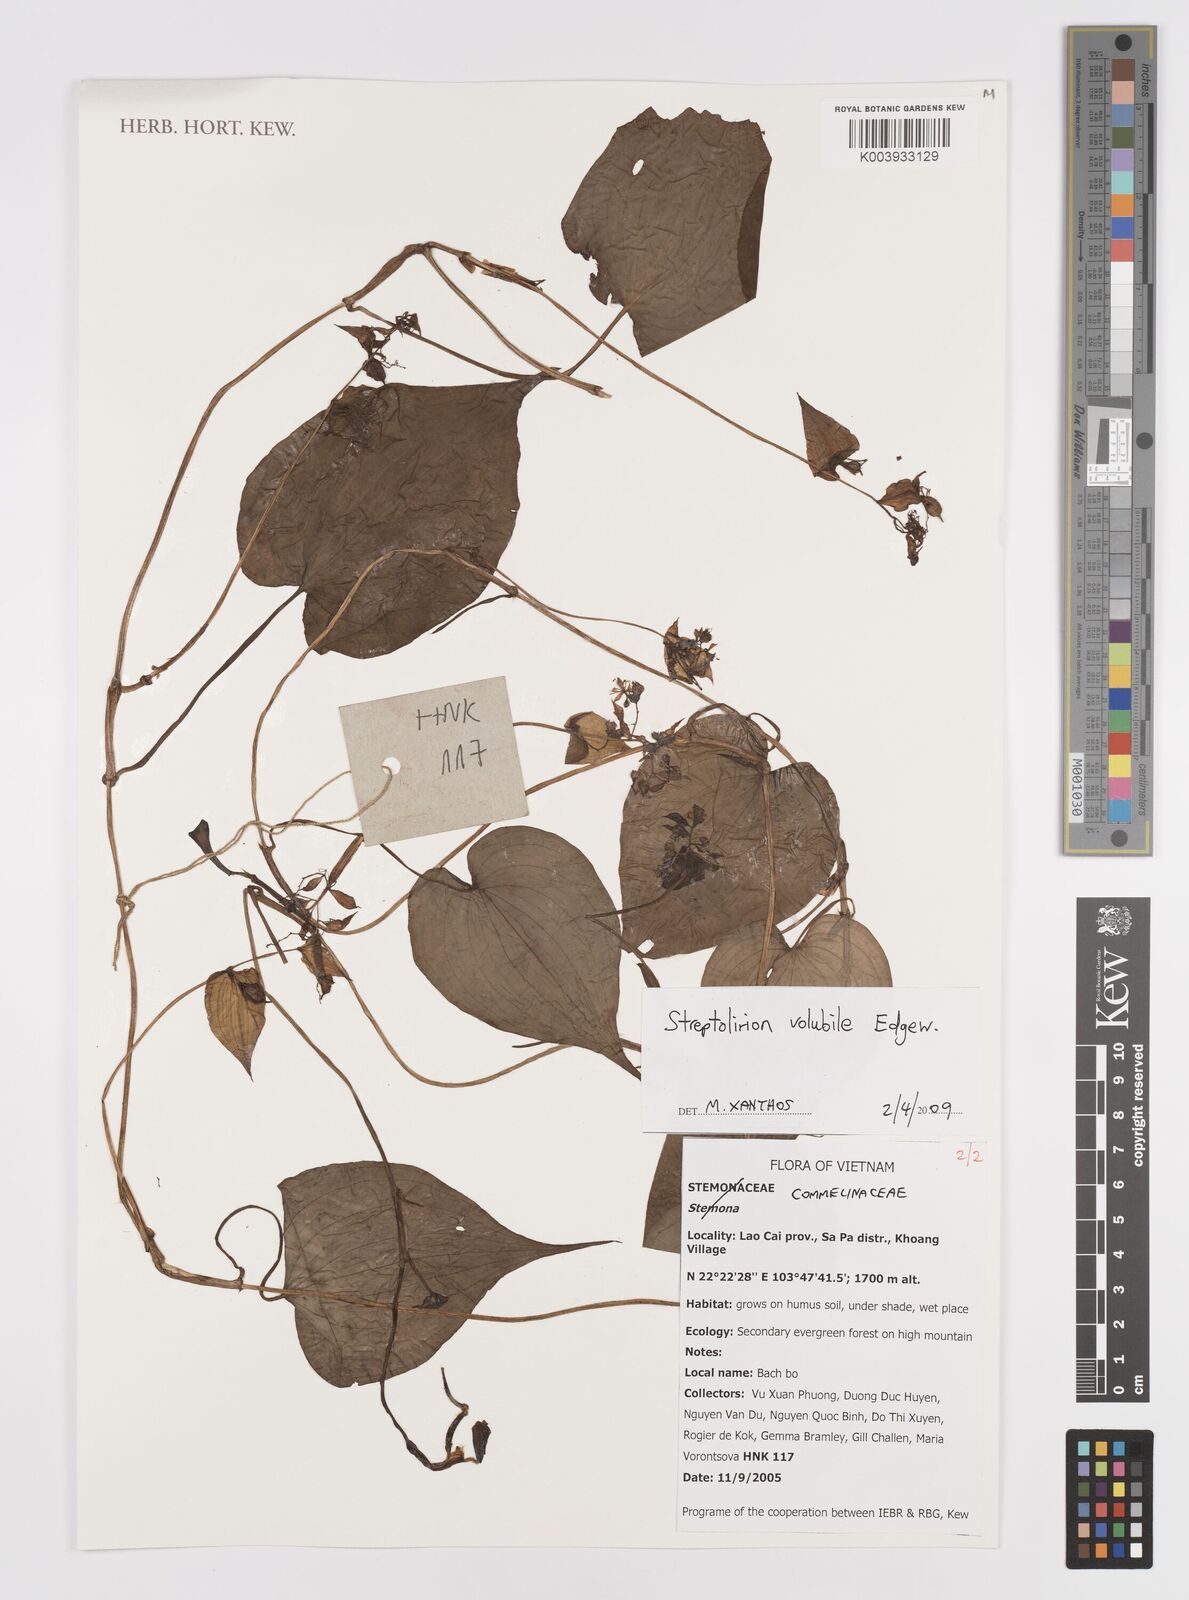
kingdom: Plantae
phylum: Tracheophyta
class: Liliopsida
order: Commelinales
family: Commelinaceae
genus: Streptolirion
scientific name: Streptolirion volubile
